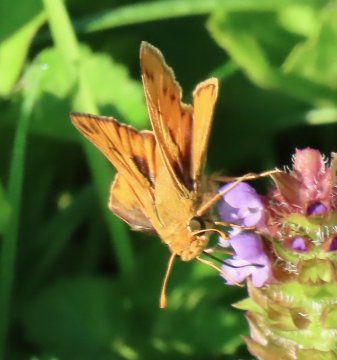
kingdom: Animalia
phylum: Arthropoda
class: Insecta
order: Lepidoptera
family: Hesperiidae
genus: Hylephila
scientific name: Hylephila phyleus
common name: Fiery Skipper
